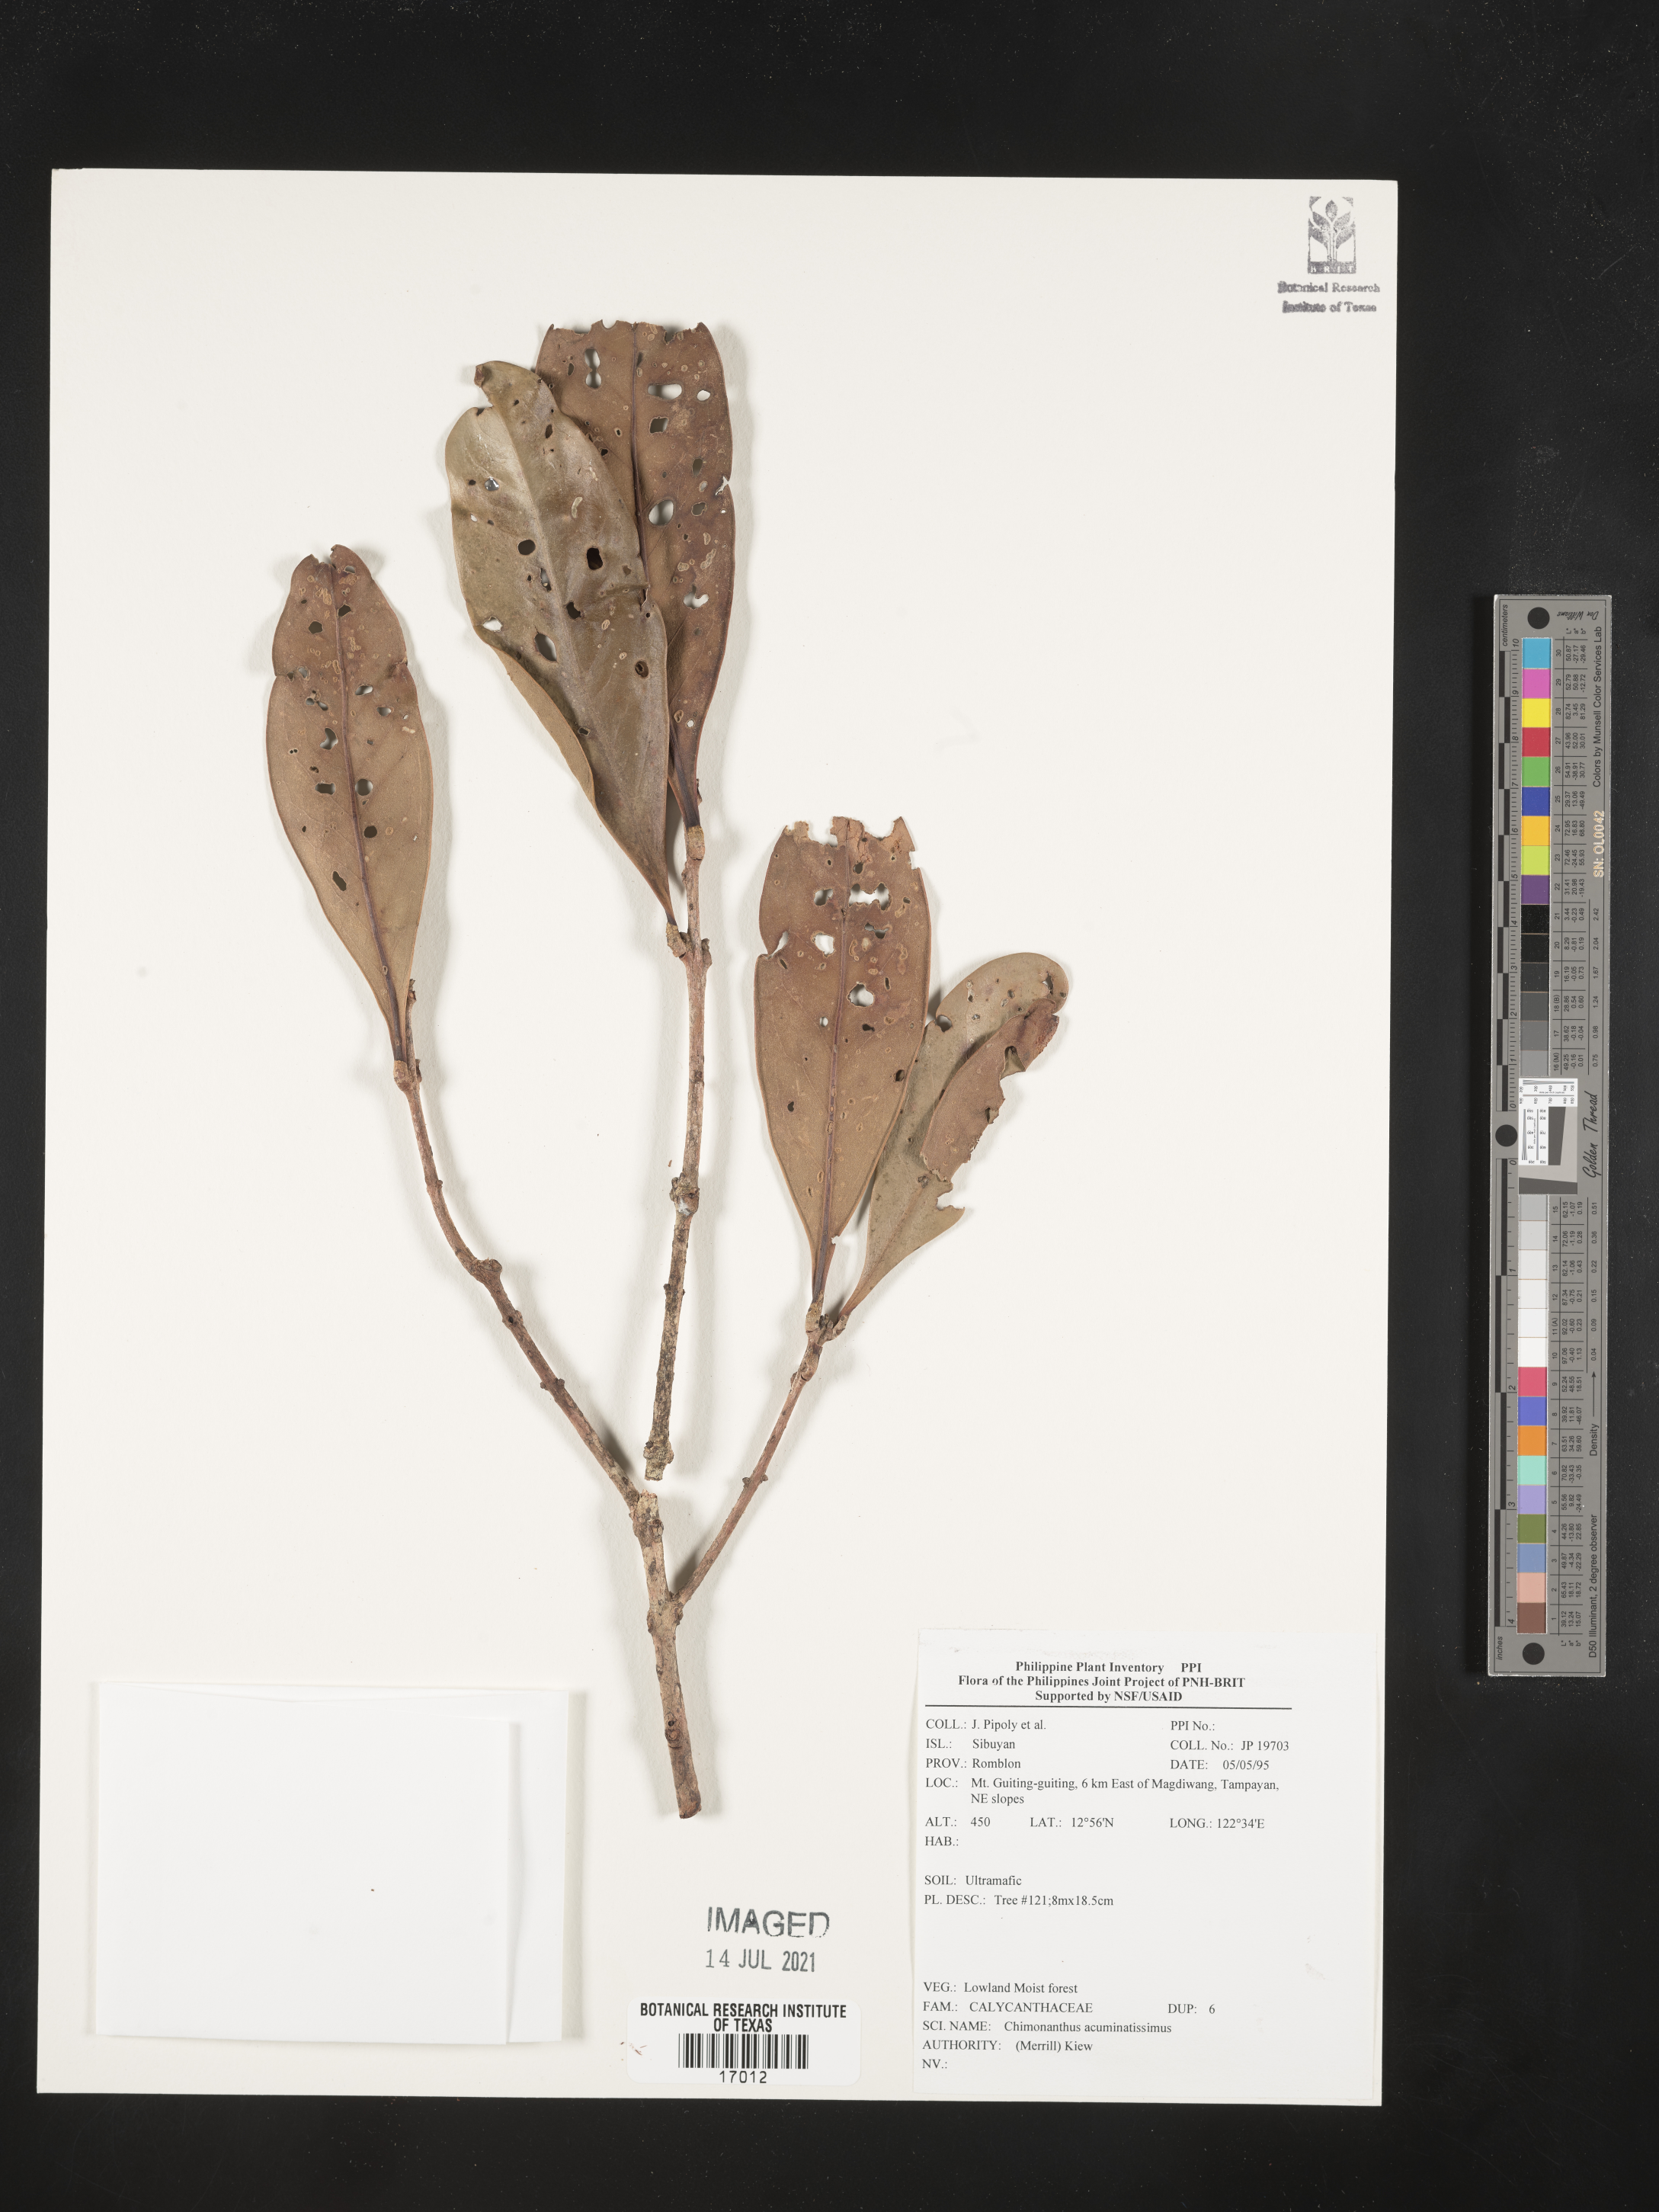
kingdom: Plantae
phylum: Tracheophyta
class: Magnoliopsida
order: Lamiales
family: Oleaceae
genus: Chionanthus
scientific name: Chionanthus acuminatissimus
